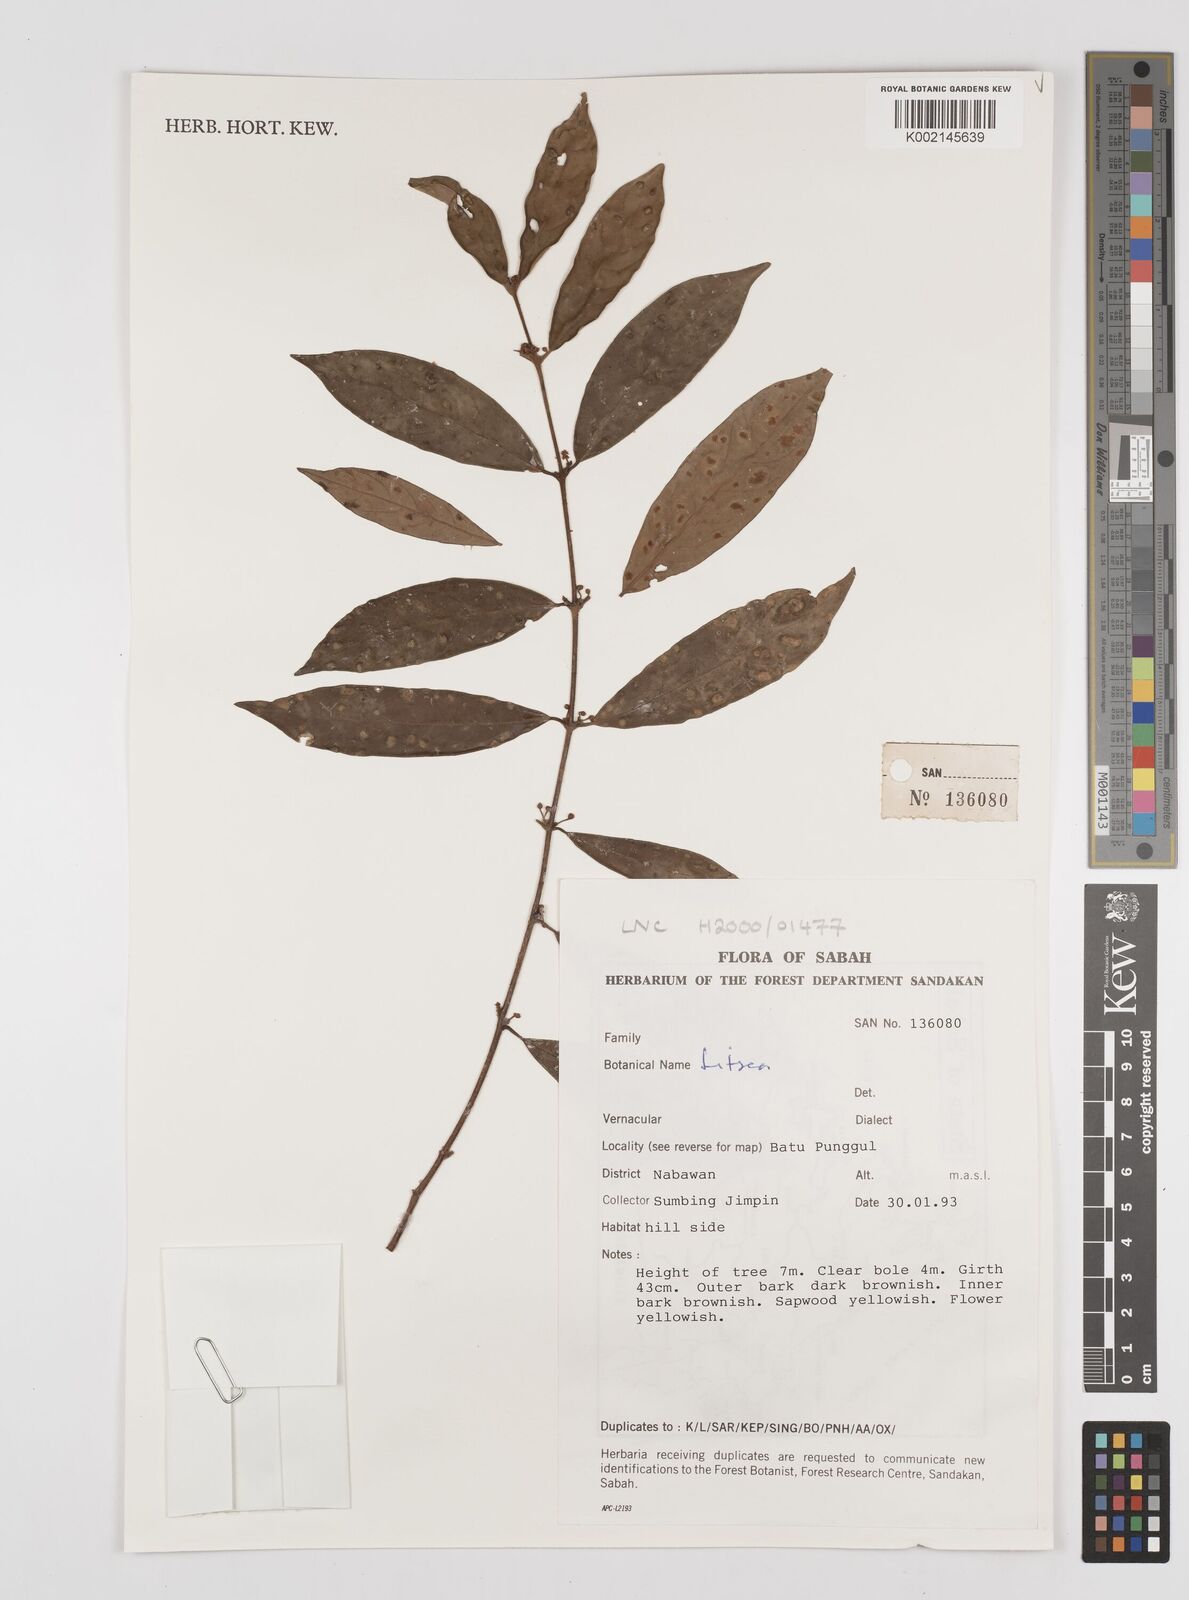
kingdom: Plantae
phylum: Tracheophyta
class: Magnoliopsida
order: Laurales
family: Lauraceae
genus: Litsea
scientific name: Litsea
